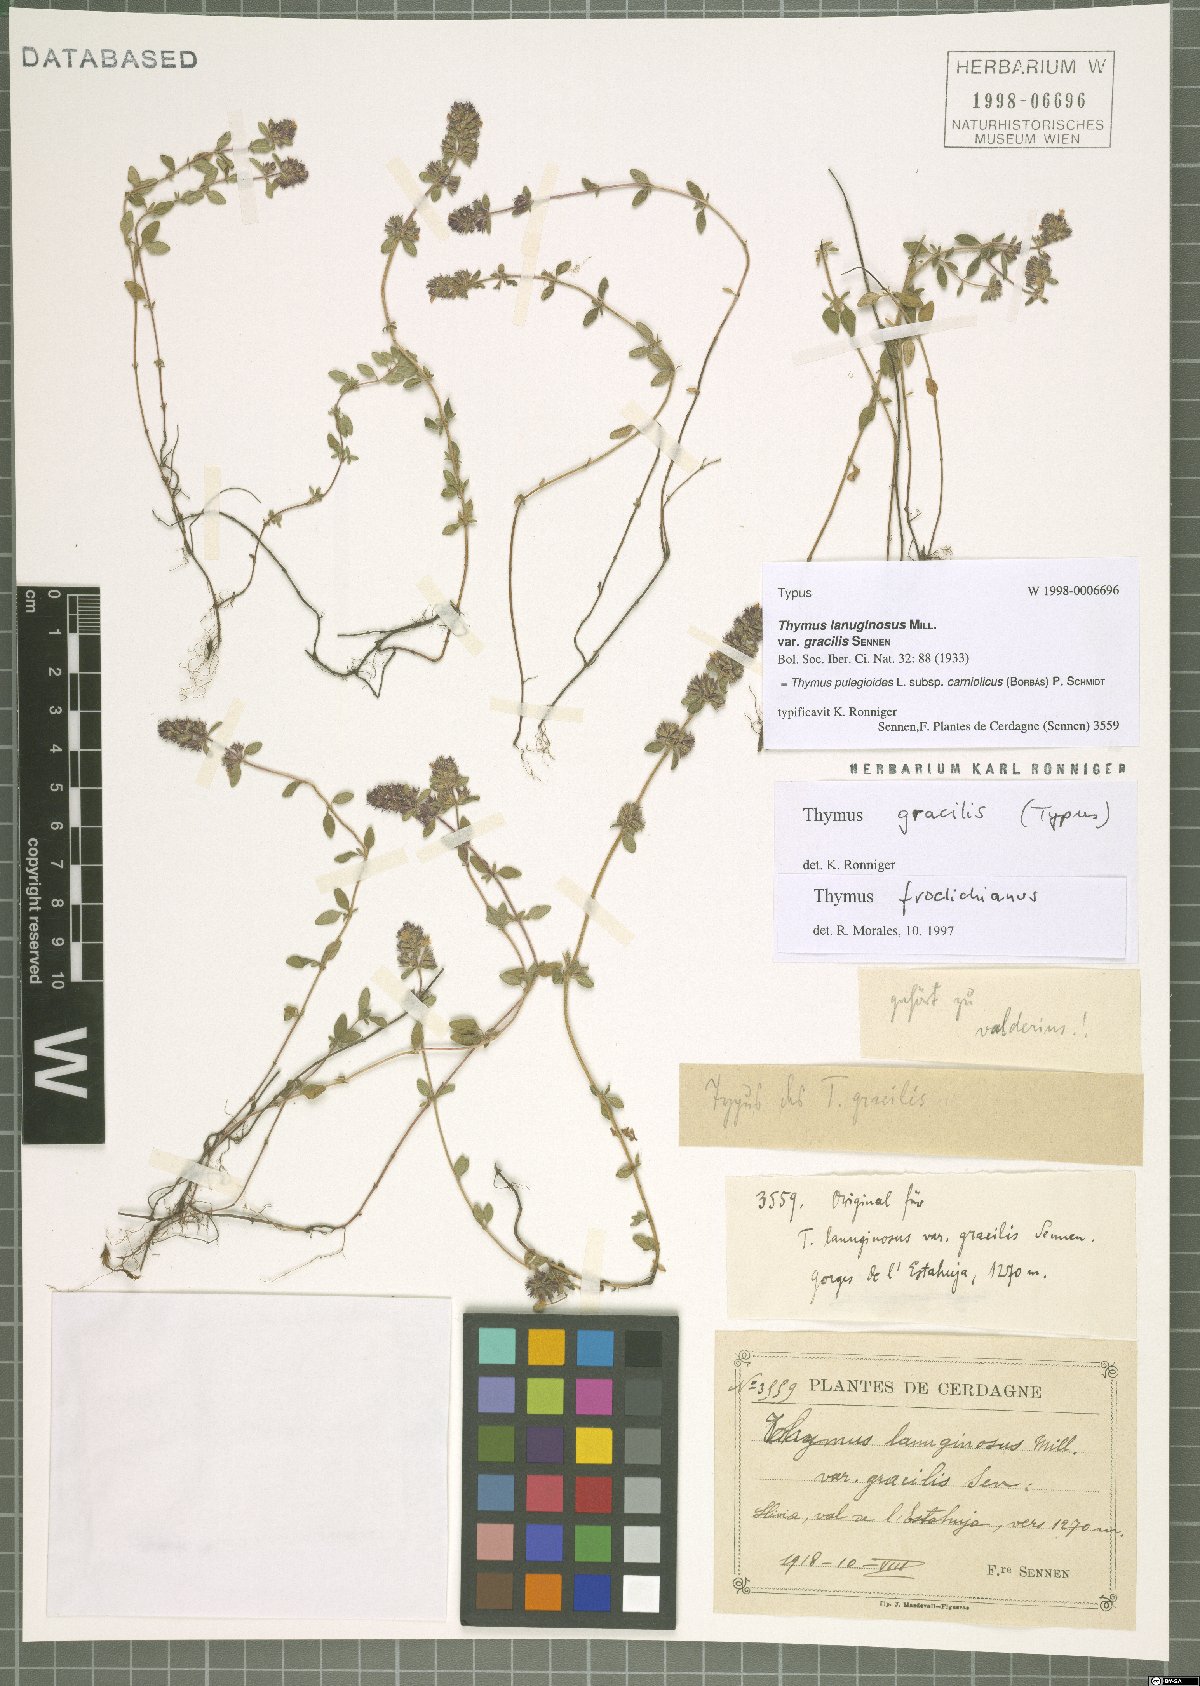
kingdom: Plantae
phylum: Tracheophyta
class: Magnoliopsida
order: Lamiales
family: Lamiaceae
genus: Thymus
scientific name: Thymus pannonicus
